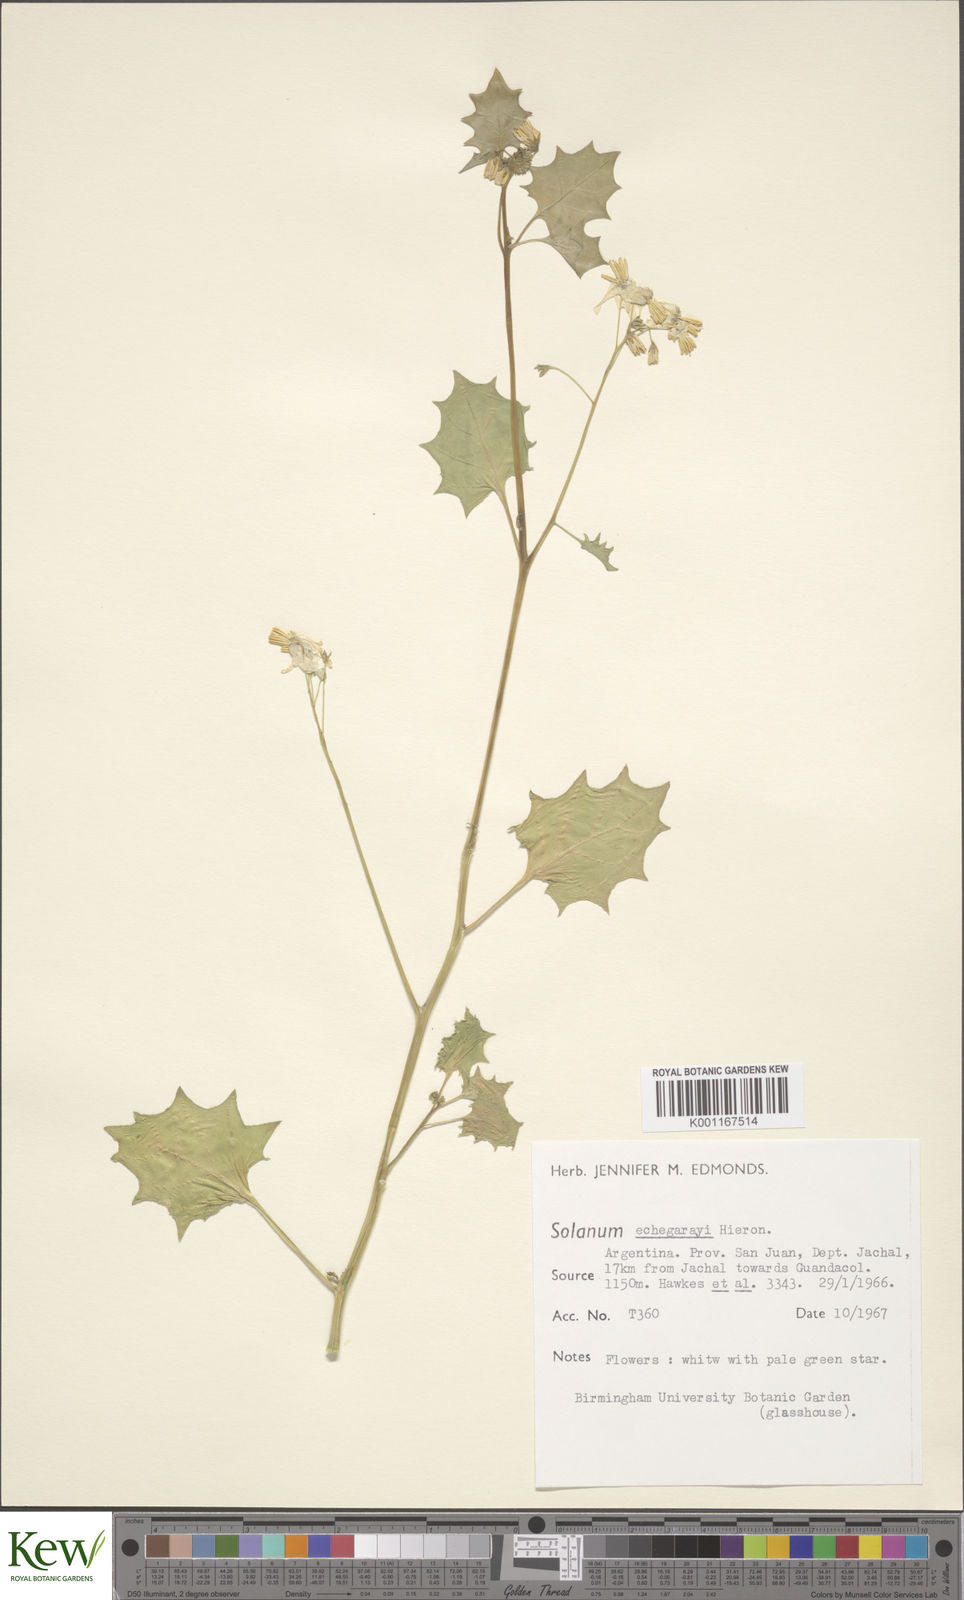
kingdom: Plantae
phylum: Tracheophyta
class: Magnoliopsida
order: Solanales
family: Solanaceae
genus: Solanum
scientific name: Solanum echegarayi
